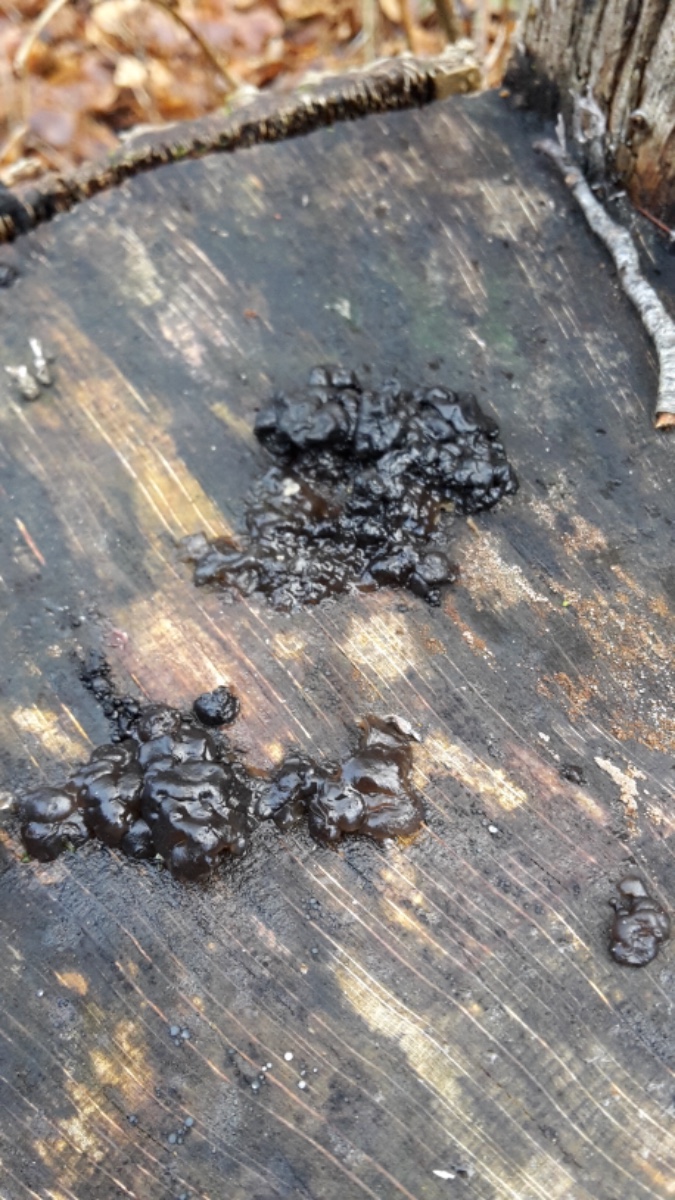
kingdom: Fungi
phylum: Basidiomycota
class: Agaricomycetes
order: Auriculariales
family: Auriculariaceae
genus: Exidia
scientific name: Exidia nigricans
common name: almindelig bævretop
